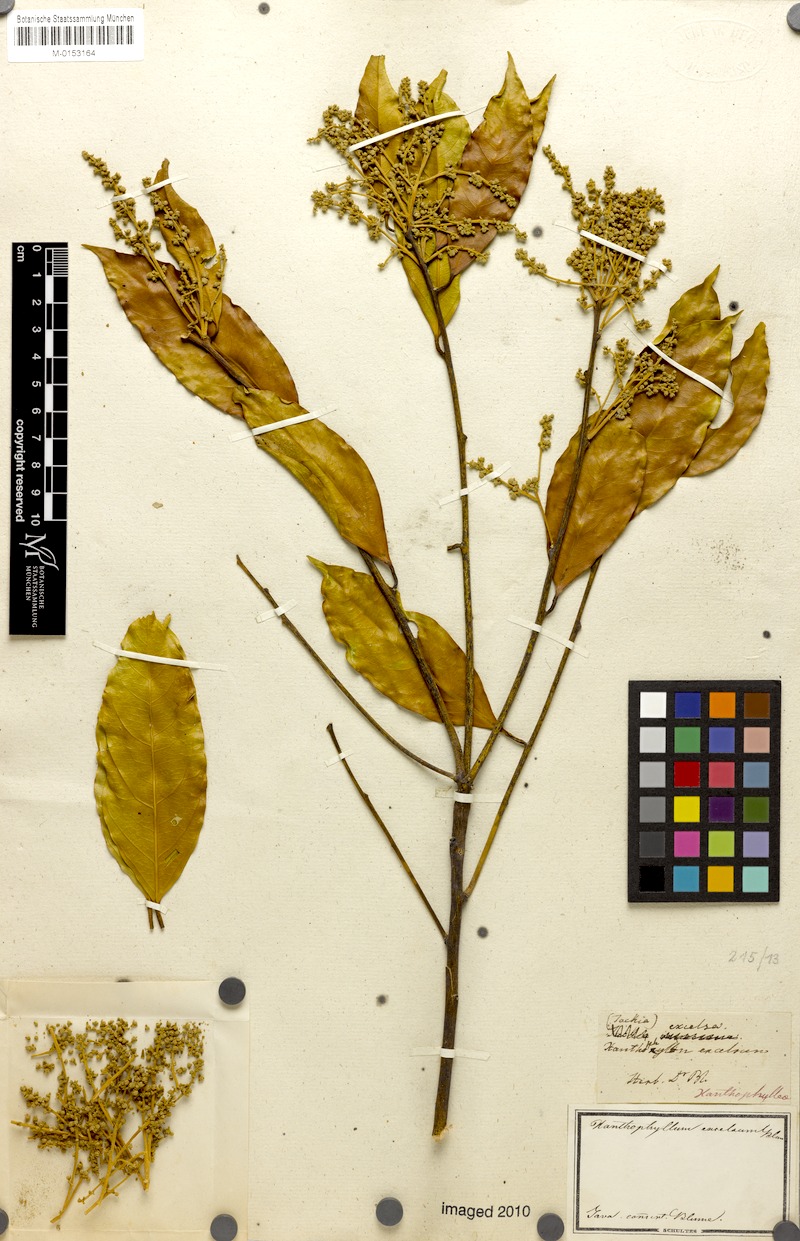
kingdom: Plantae
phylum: Tracheophyta
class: Magnoliopsida
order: Fabales
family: Polygalaceae
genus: Xanthophyllum
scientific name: Xanthophyllum flavescens
